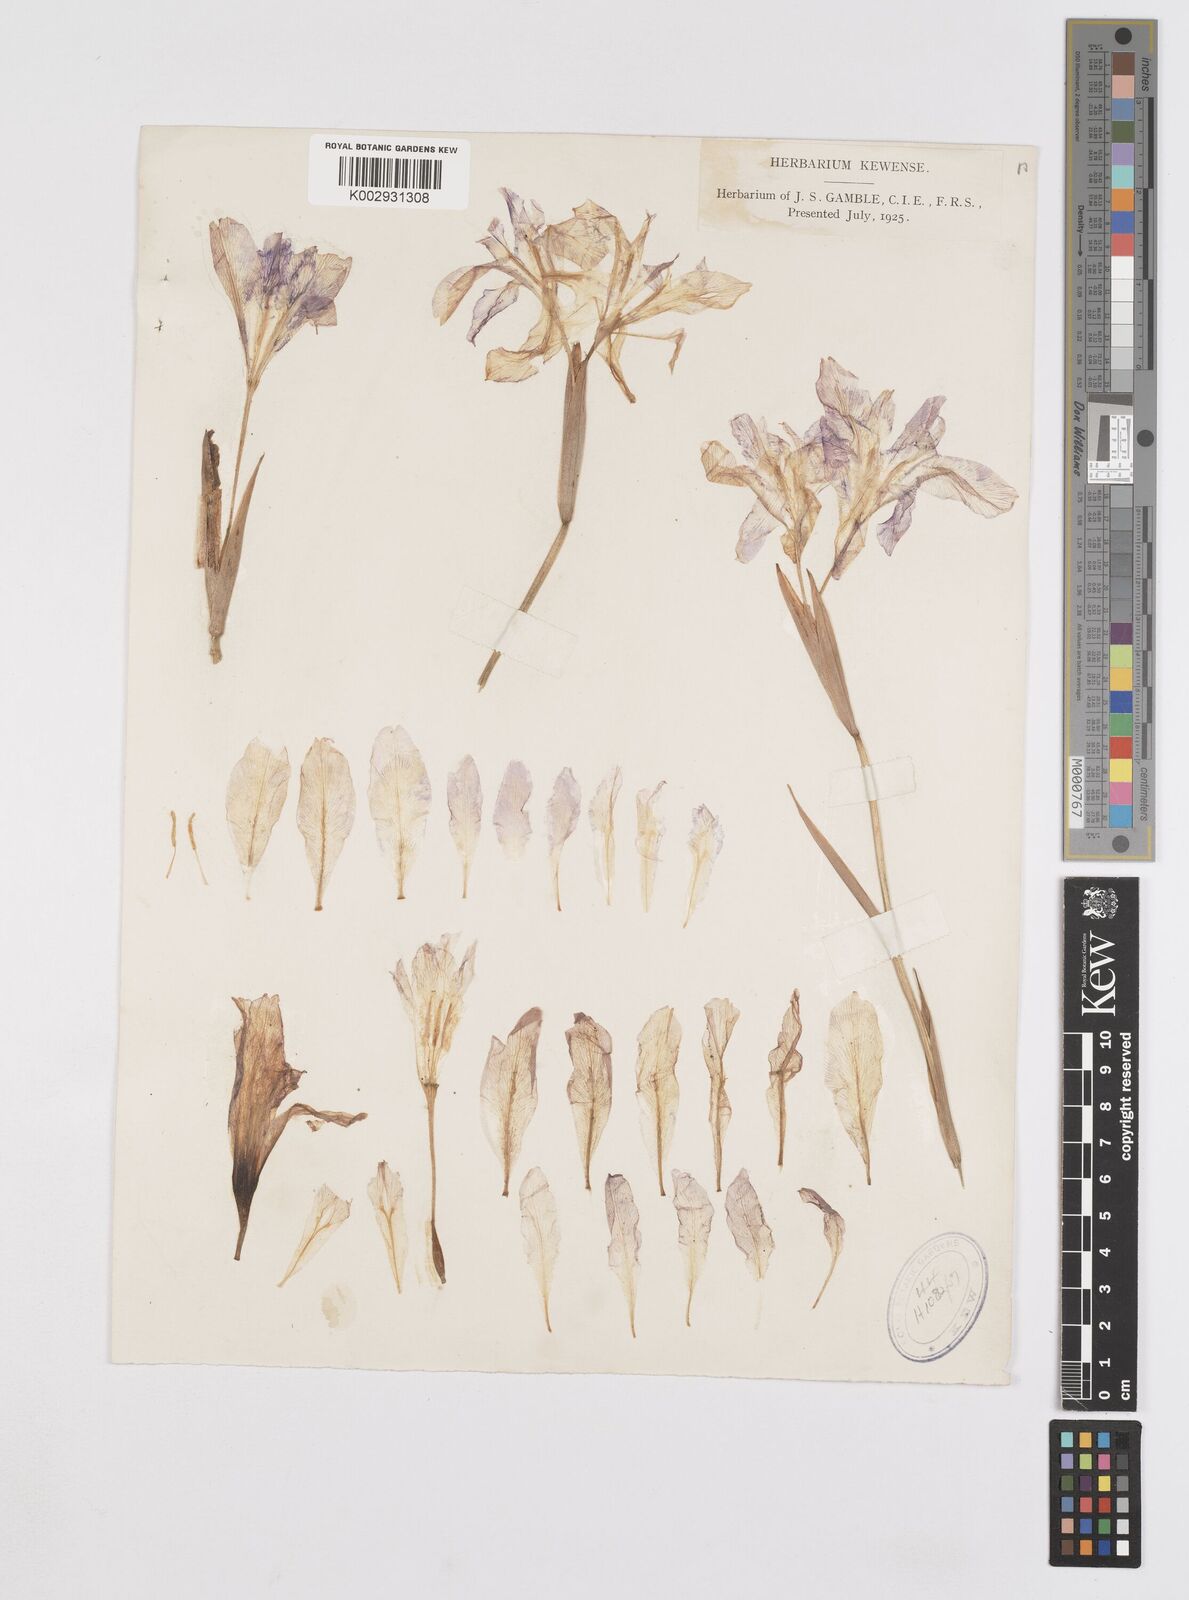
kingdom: Plantae
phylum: Tracheophyta
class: Liliopsida
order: Asparagales
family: Iridaceae
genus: Iris
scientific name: Iris decora
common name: Nepal iris
